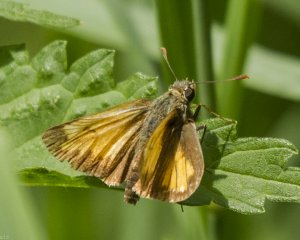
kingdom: Animalia
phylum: Arthropoda
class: Insecta
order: Lepidoptera
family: Hesperiidae
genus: Lon
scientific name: Lon hobomok
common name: Hobomok Skipper
